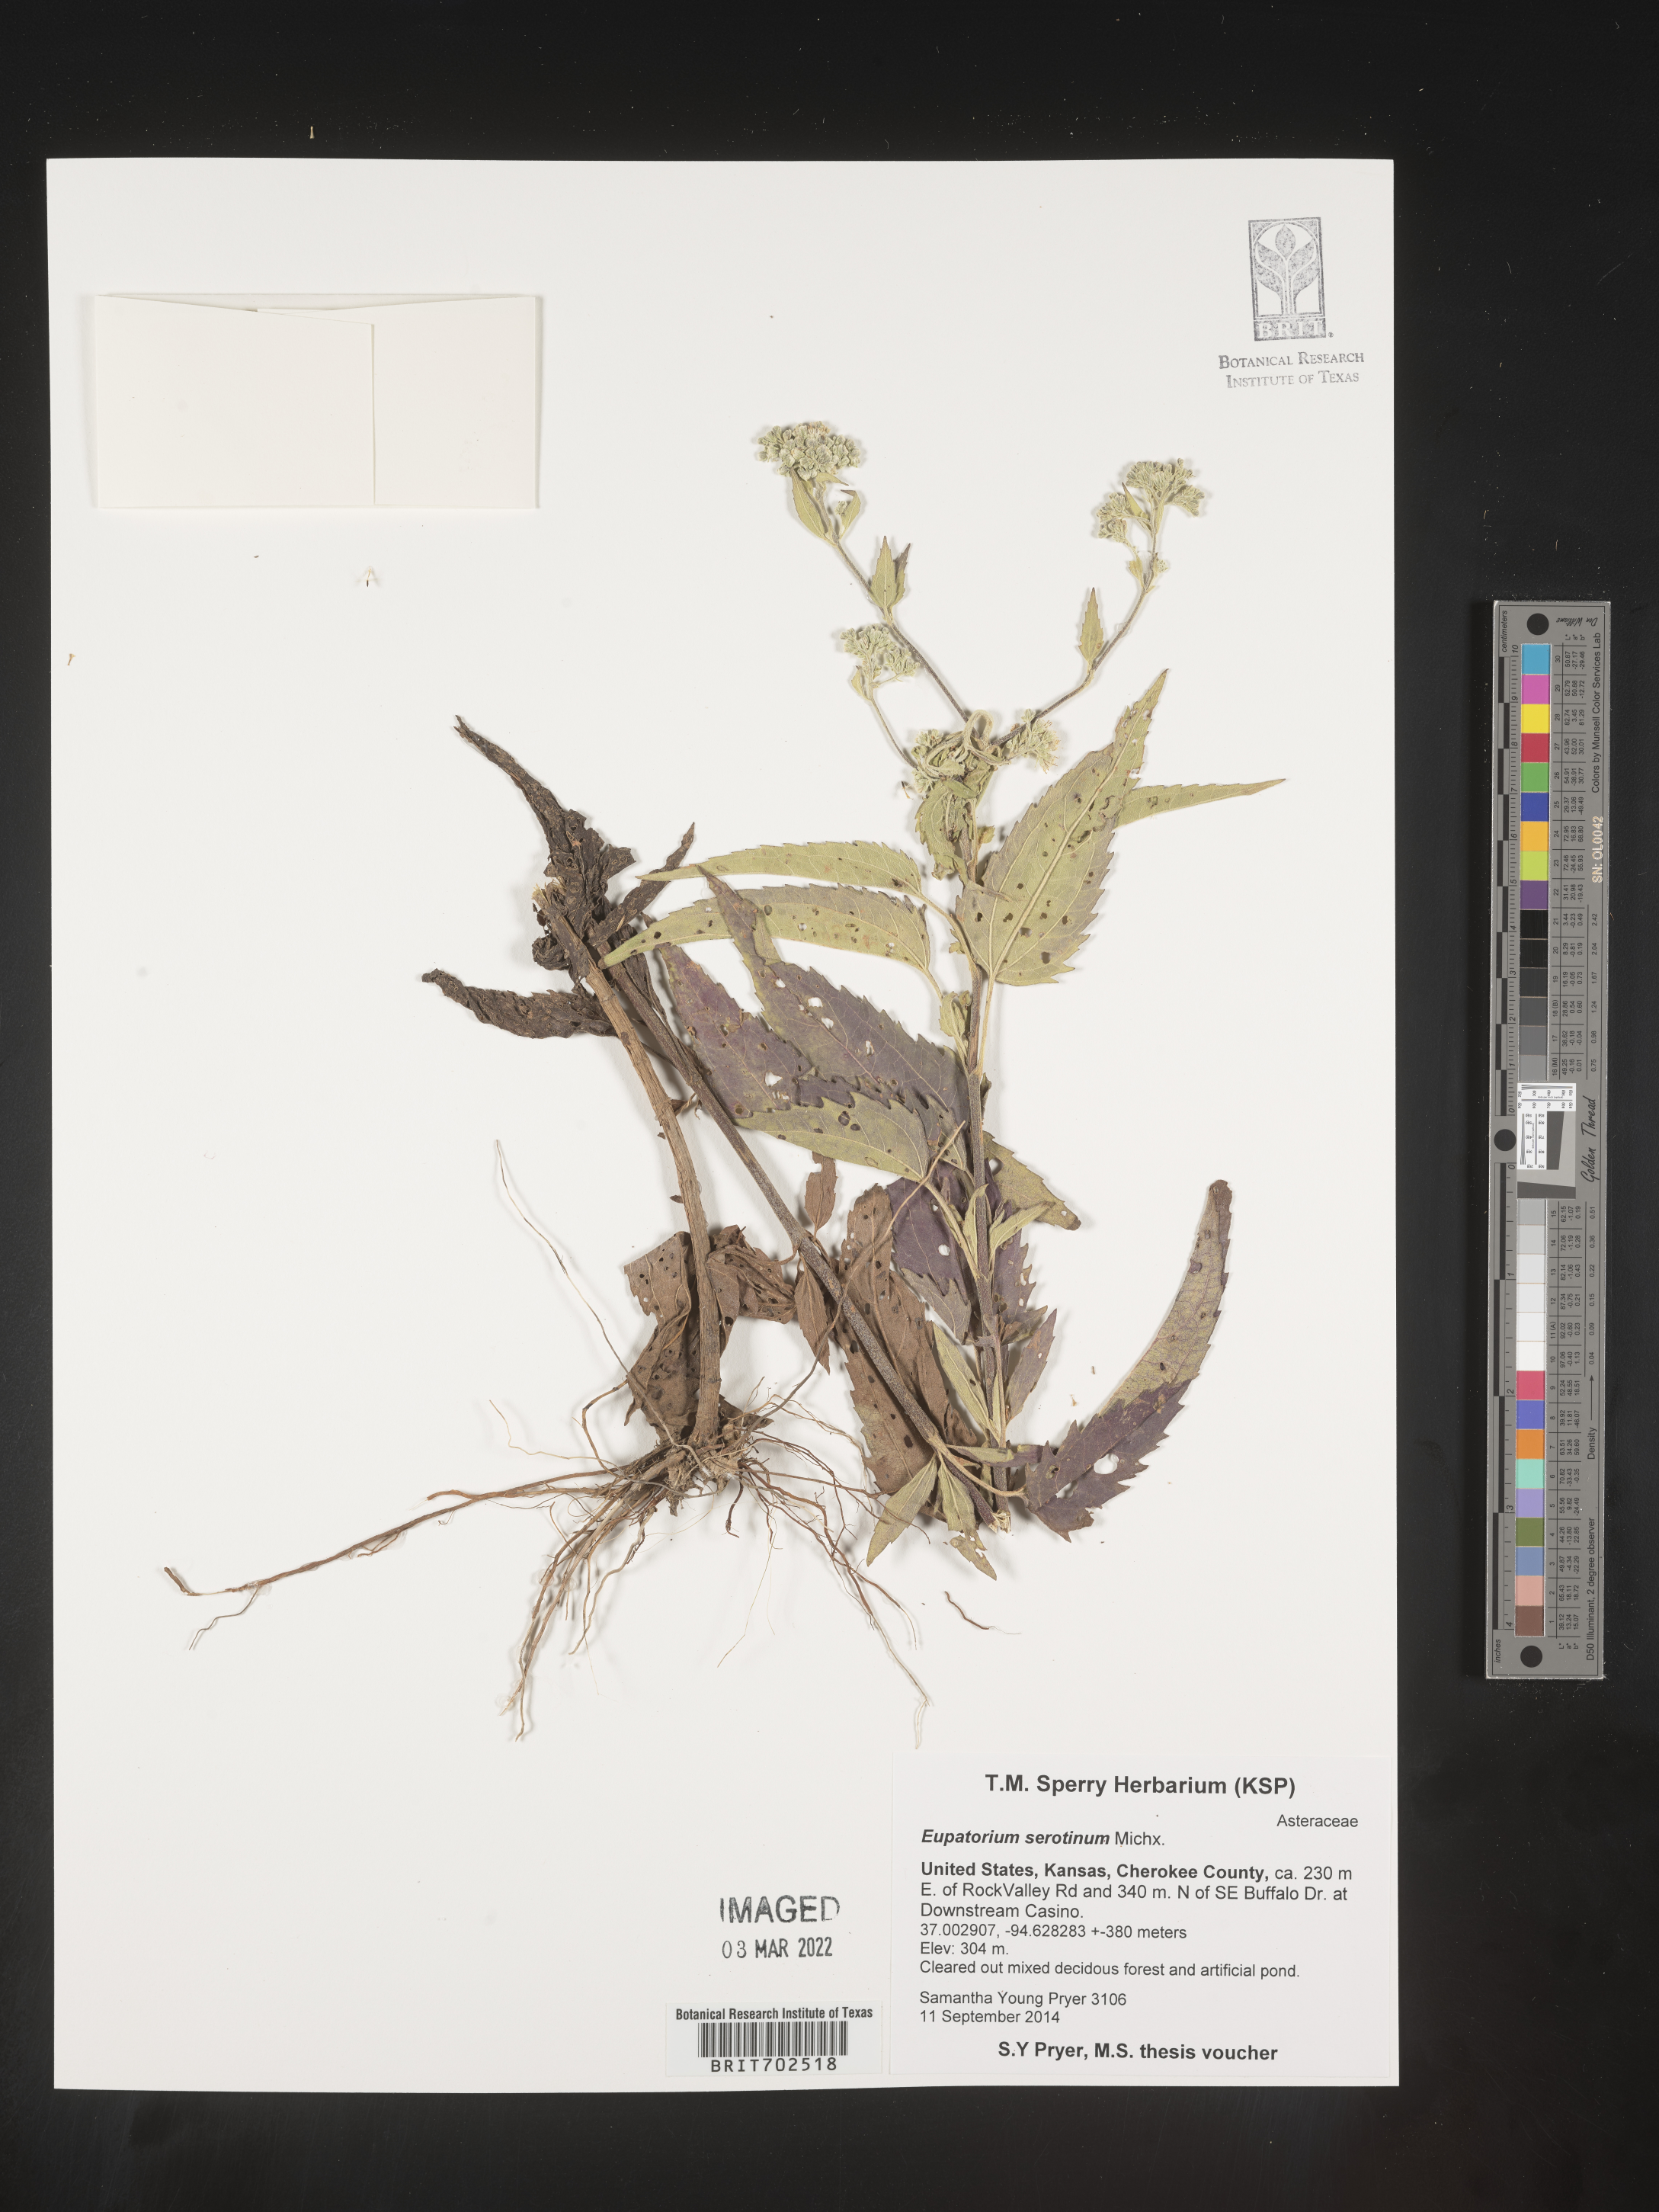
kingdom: Plantae
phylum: Tracheophyta
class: Magnoliopsida
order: Asterales
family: Asteraceae
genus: Eupatorium
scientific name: Eupatorium serotinum
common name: Late boneset
